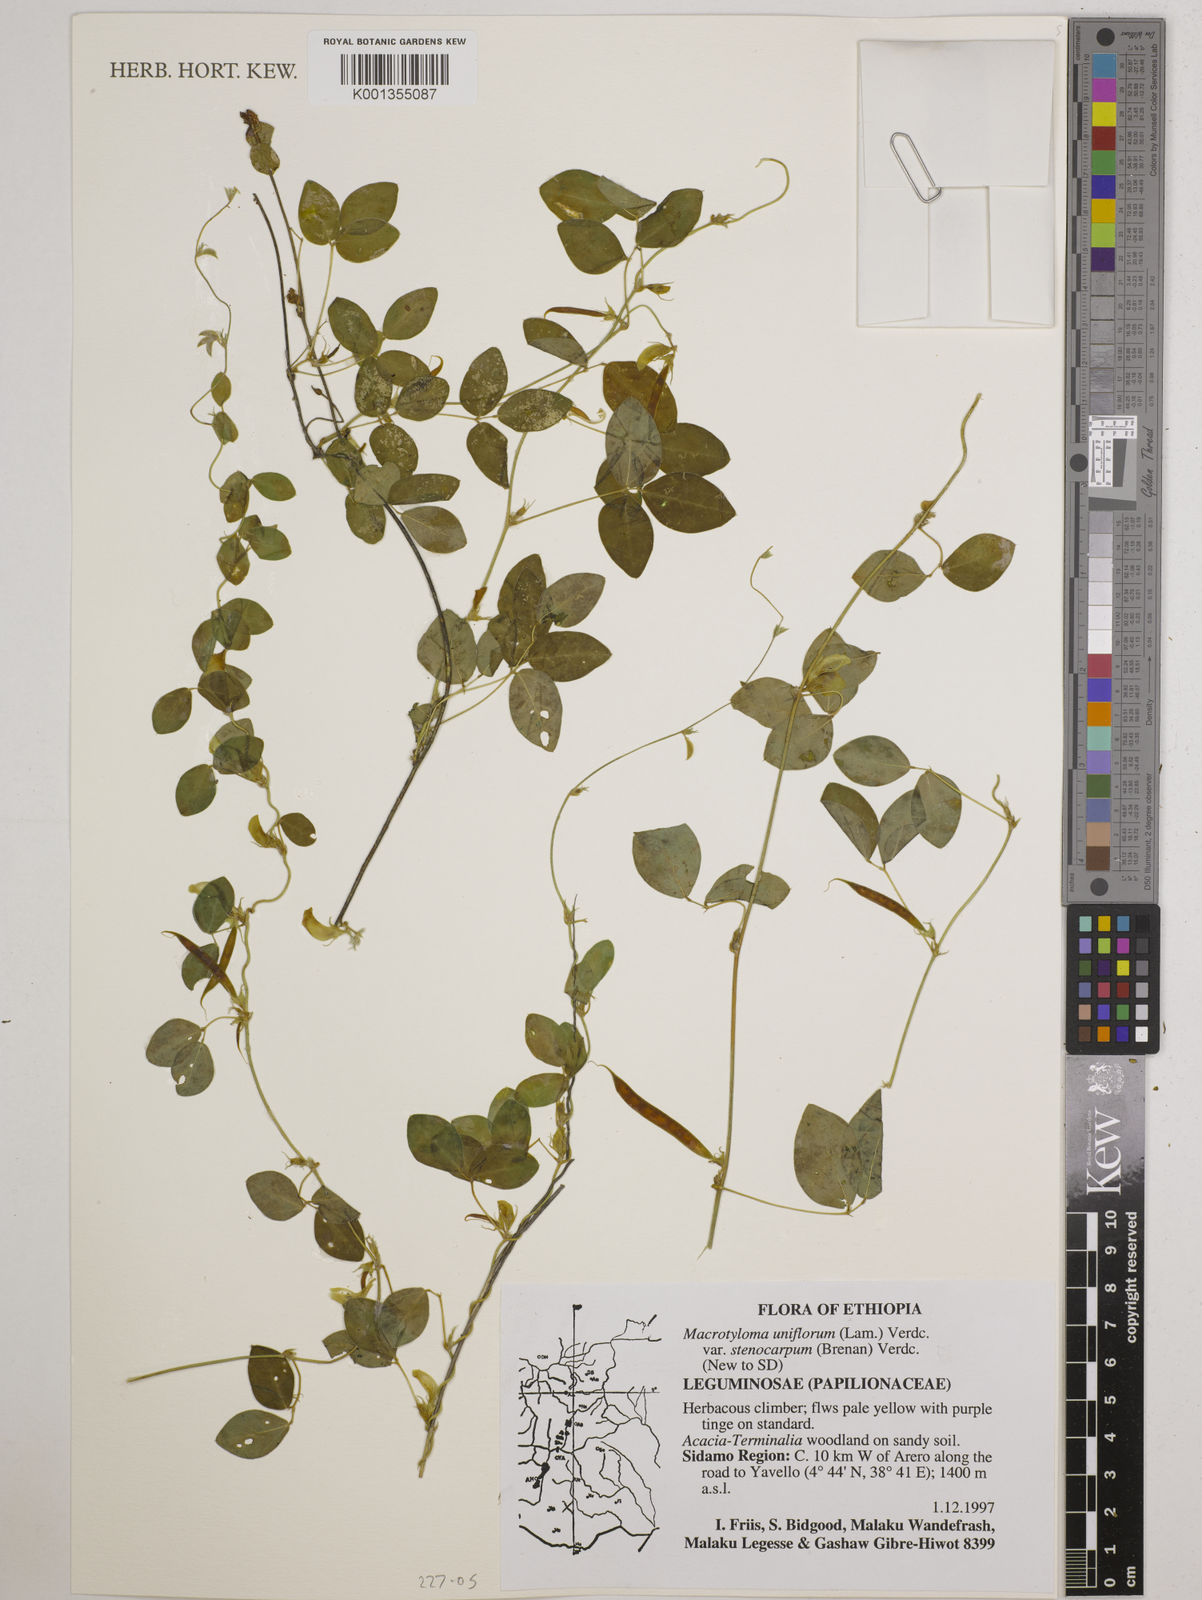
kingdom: Plantae
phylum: Tracheophyta
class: Magnoliopsida
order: Fabales
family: Fabaceae
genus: Macrotyloma
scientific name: Macrotyloma
